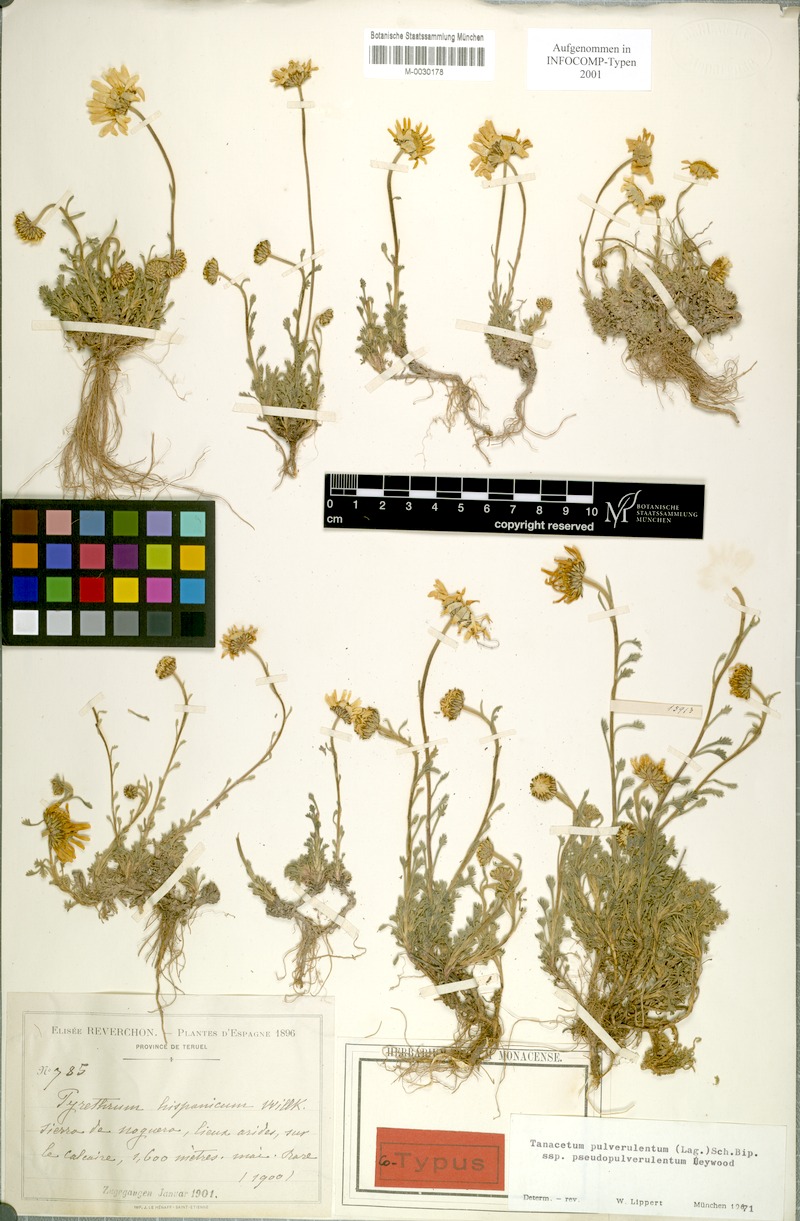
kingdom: Plantae
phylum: Tracheophyta
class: Magnoliopsida
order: Asterales
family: Asteraceae
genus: Leucanthemopsis
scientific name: Leucanthemopsis heywoodii
